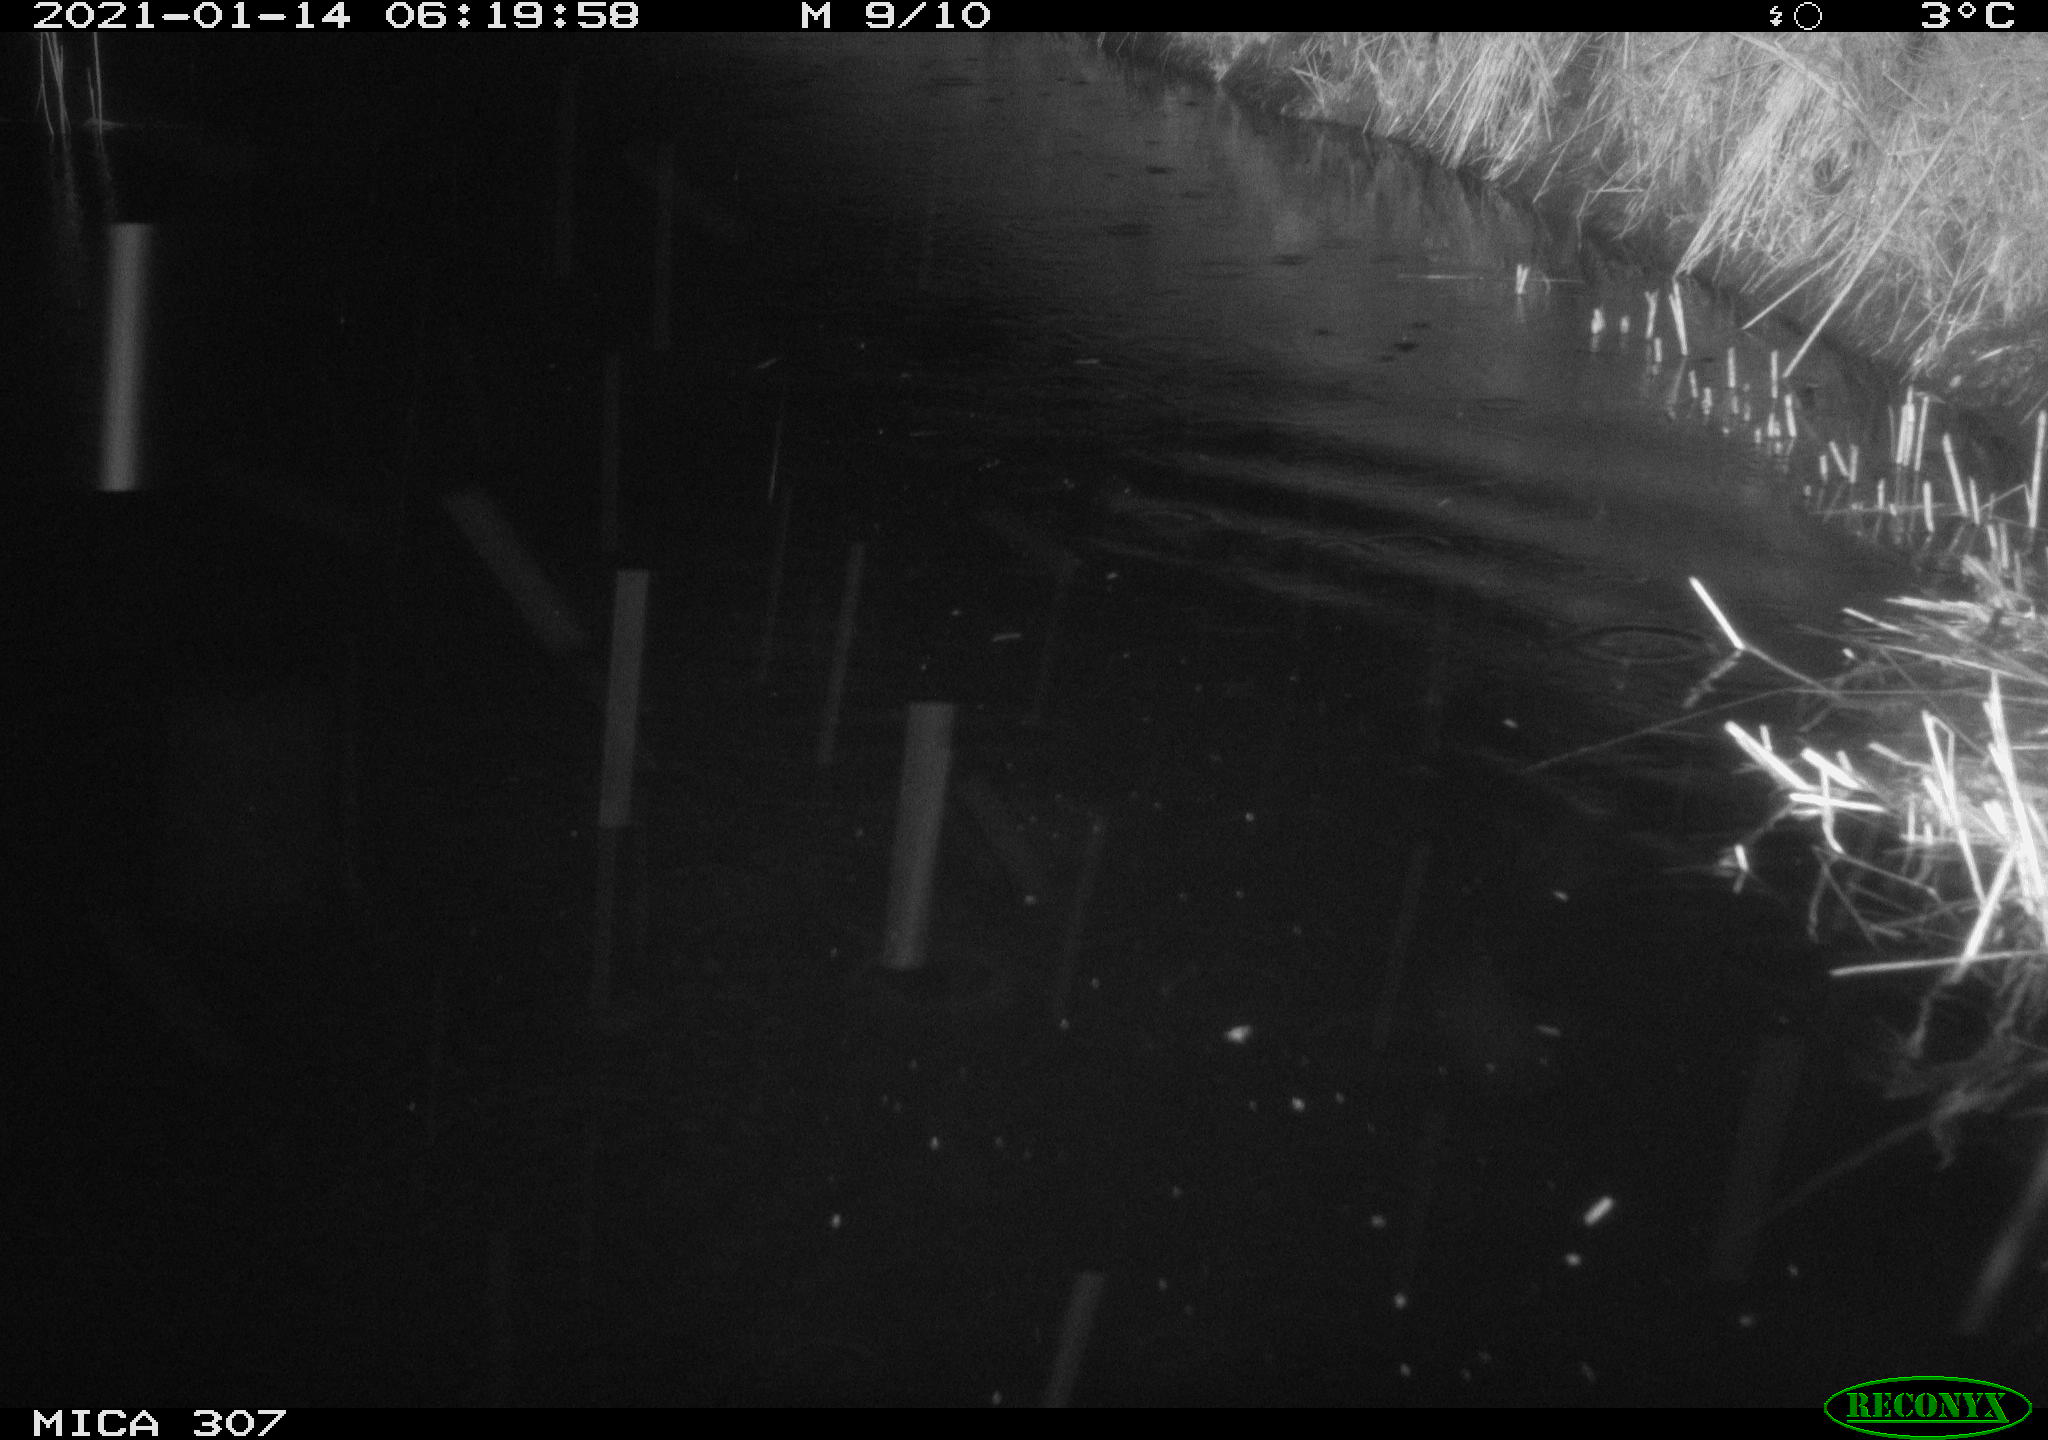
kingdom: Animalia
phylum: Chordata
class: Mammalia
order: Rodentia
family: Muridae
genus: Rattus
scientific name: Rattus norvegicus
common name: Brown rat
